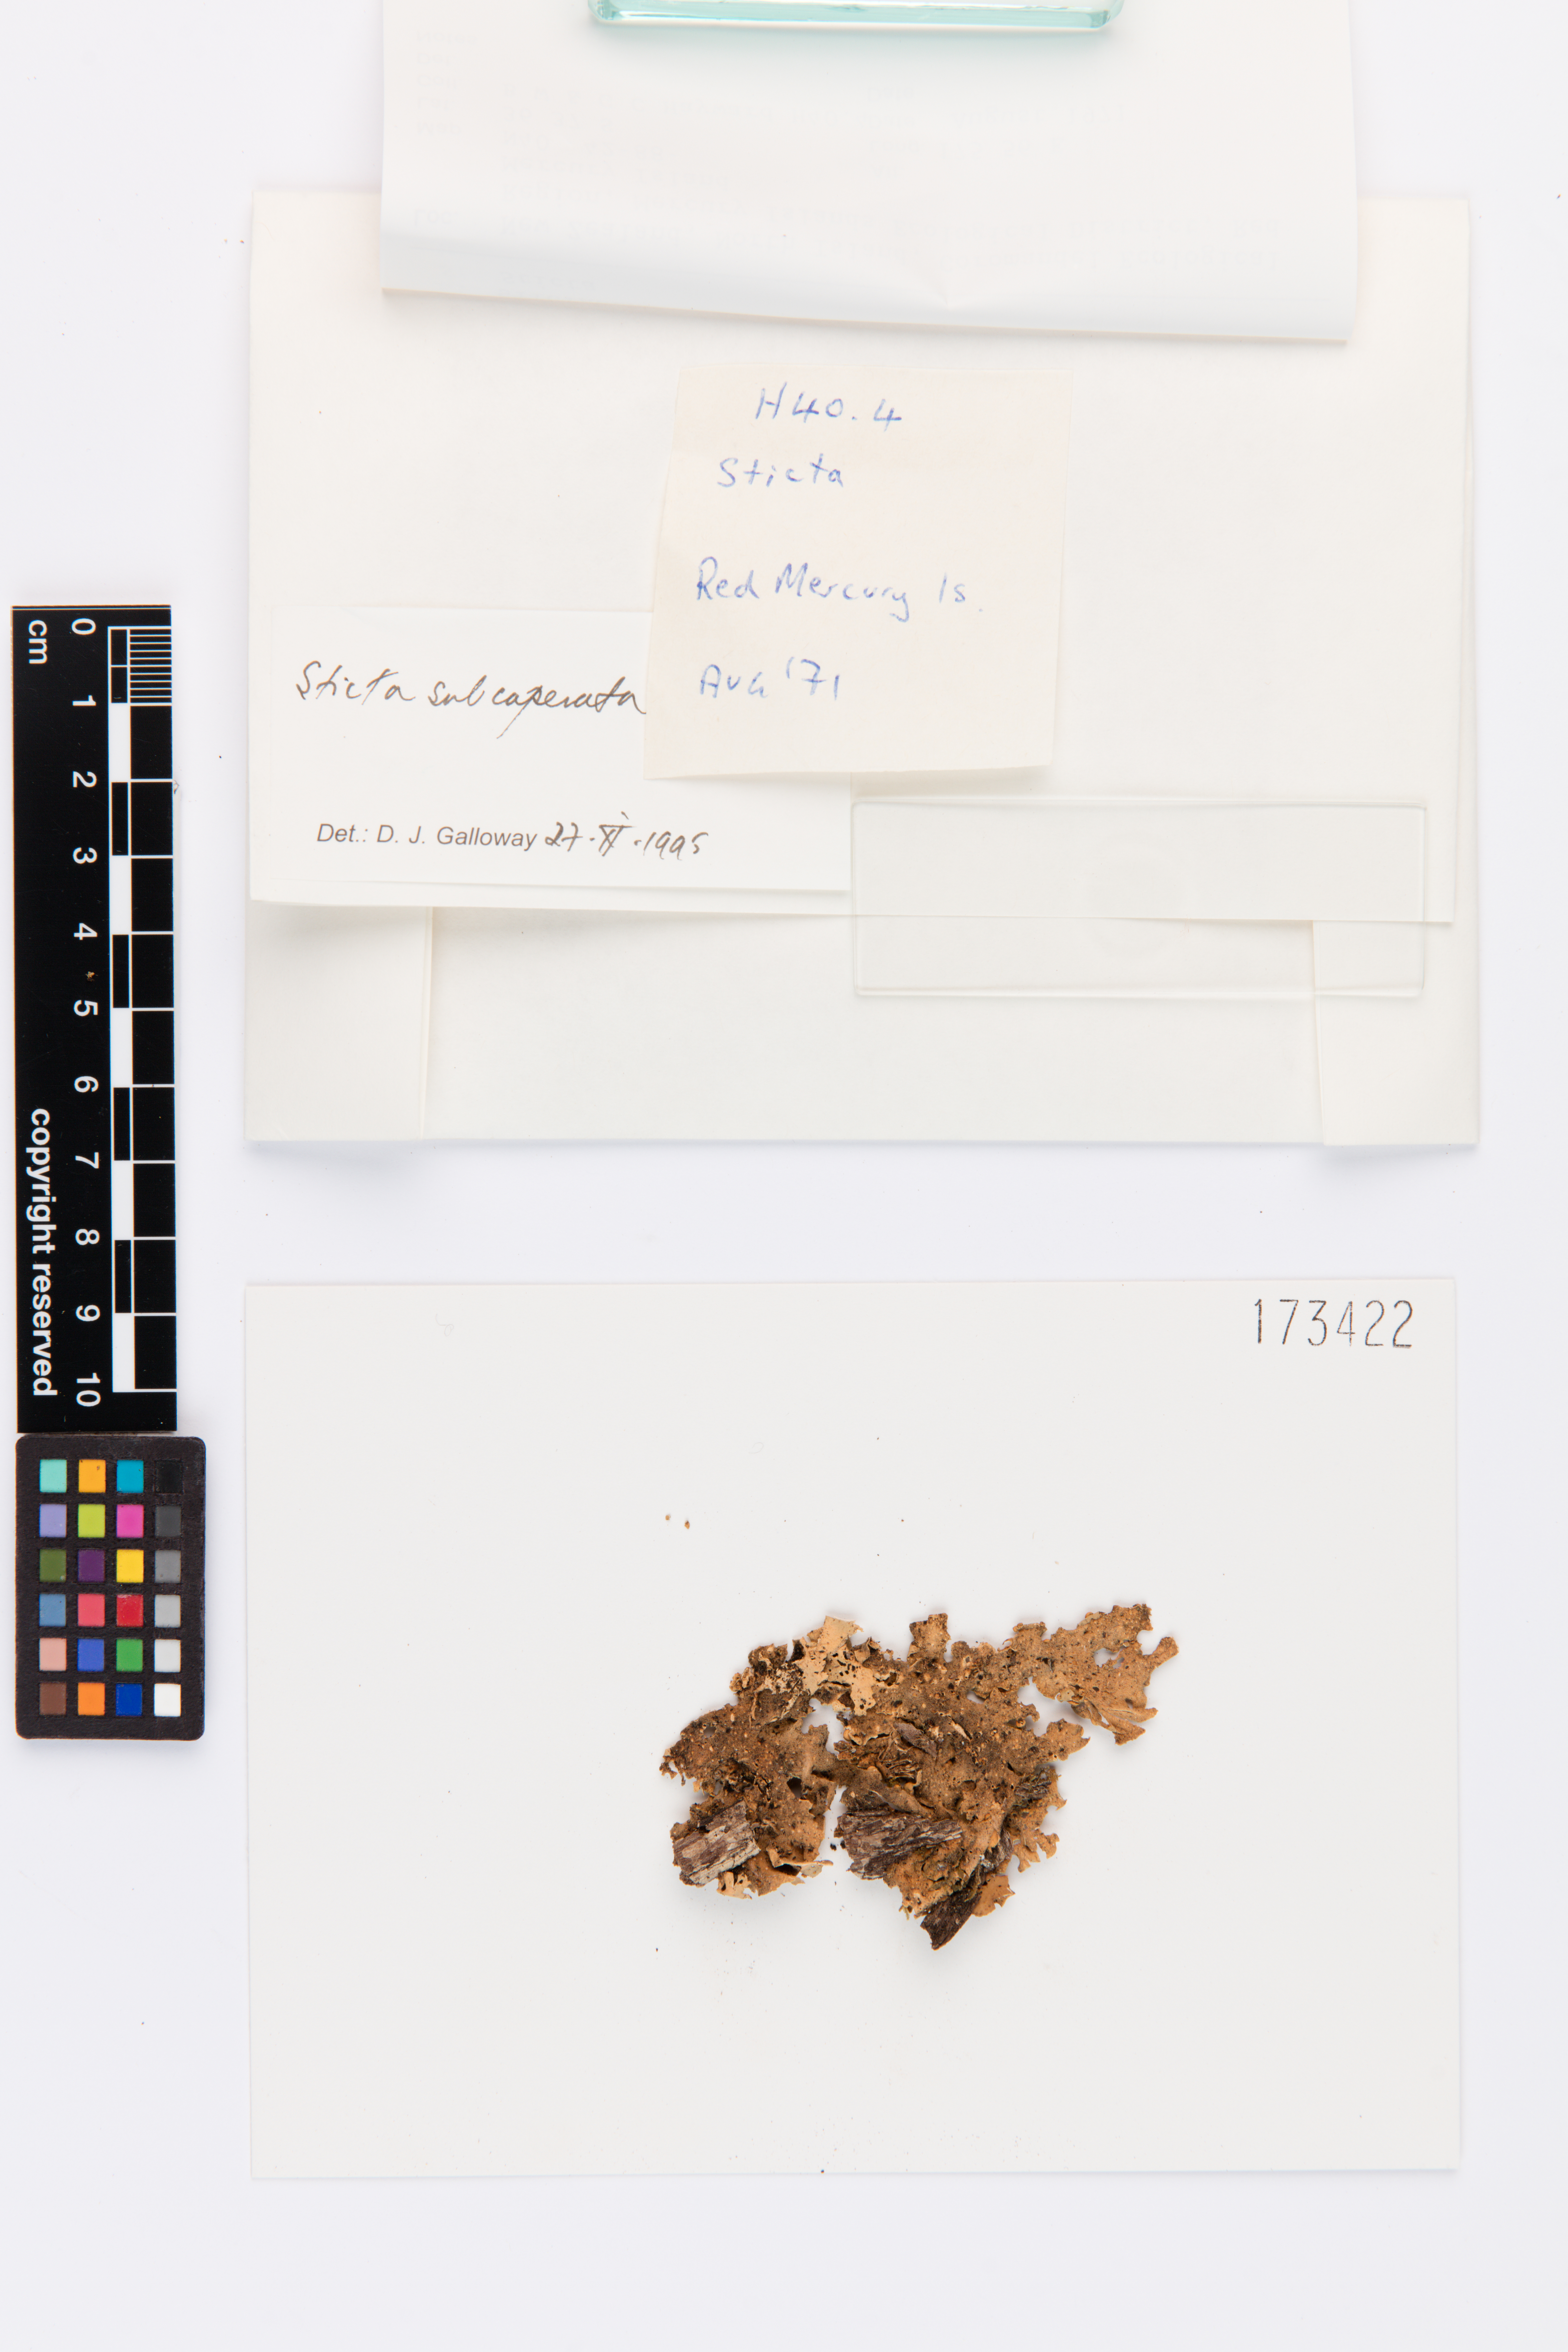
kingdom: Fungi
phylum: Ascomycota
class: Lecanoromycetes
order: Peltigerales
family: Lobariaceae
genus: Sticta
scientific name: Sticta subcaperata
